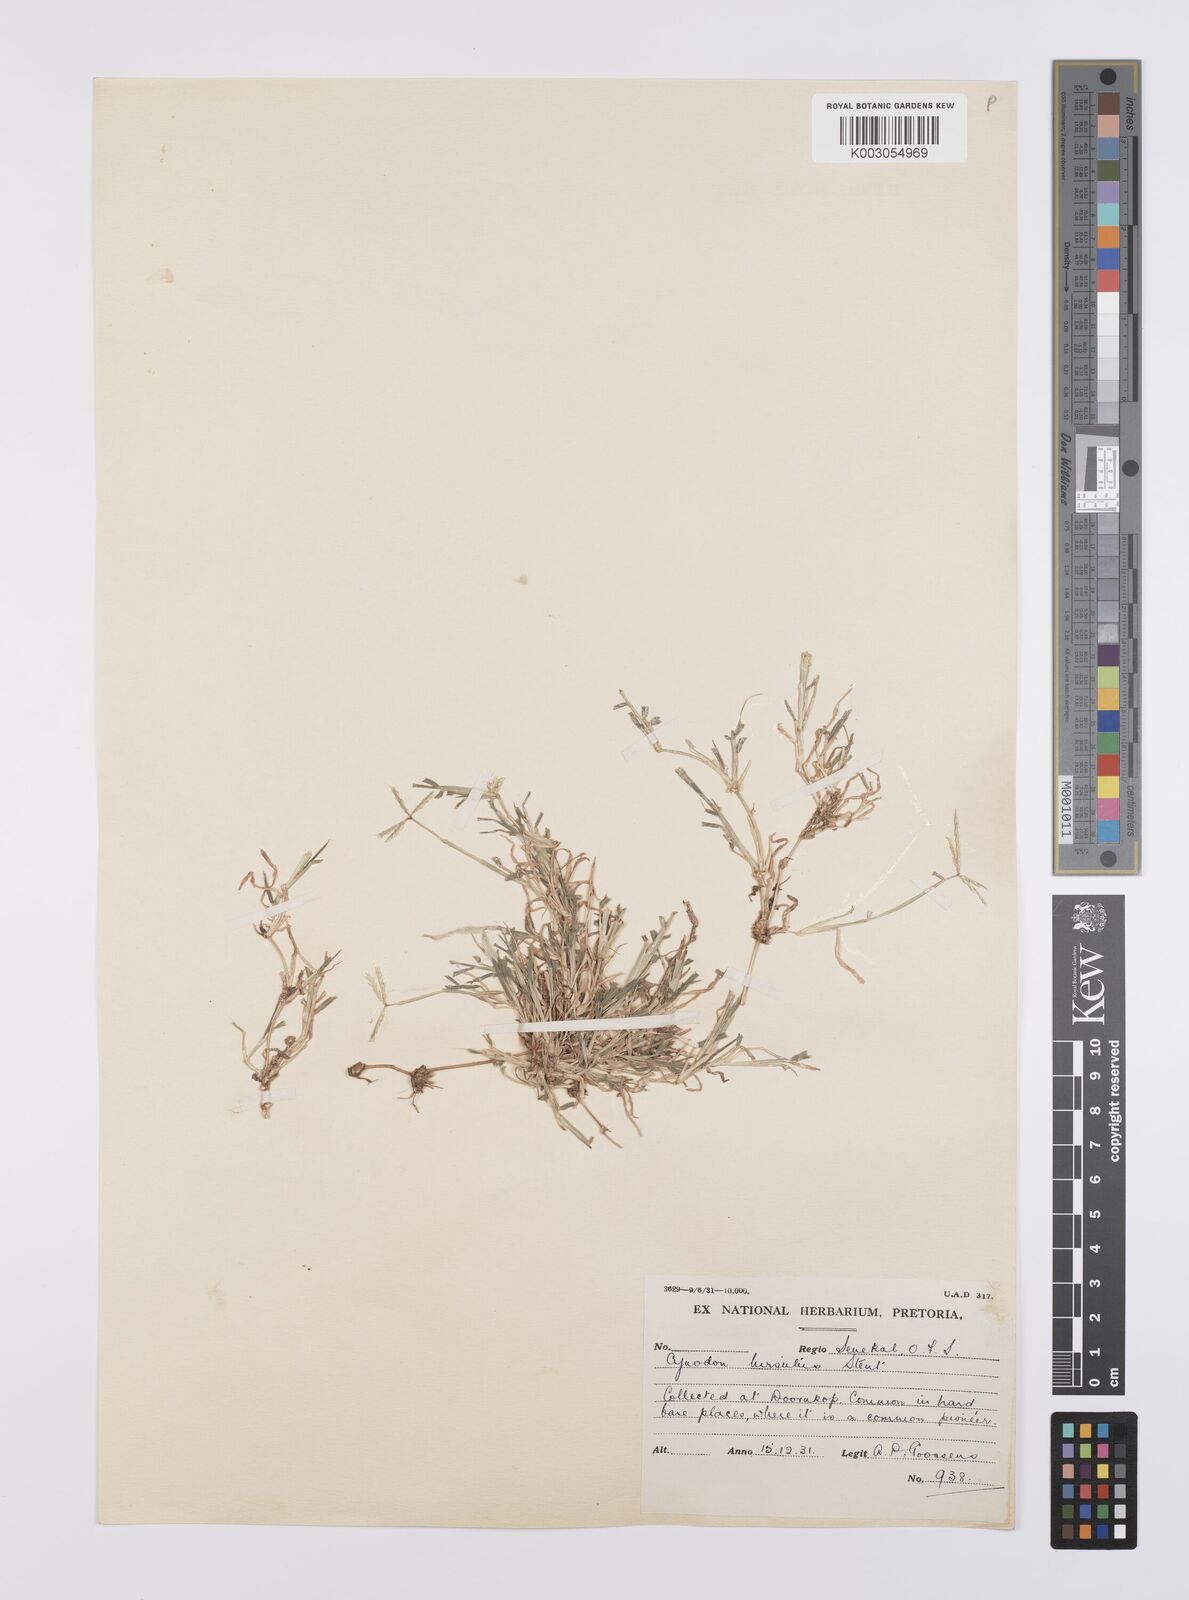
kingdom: Plantae
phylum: Tracheophyta
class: Liliopsida
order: Poales
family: Poaceae
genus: Cynodon
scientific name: Cynodon incompletus
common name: African bermuda-grass
